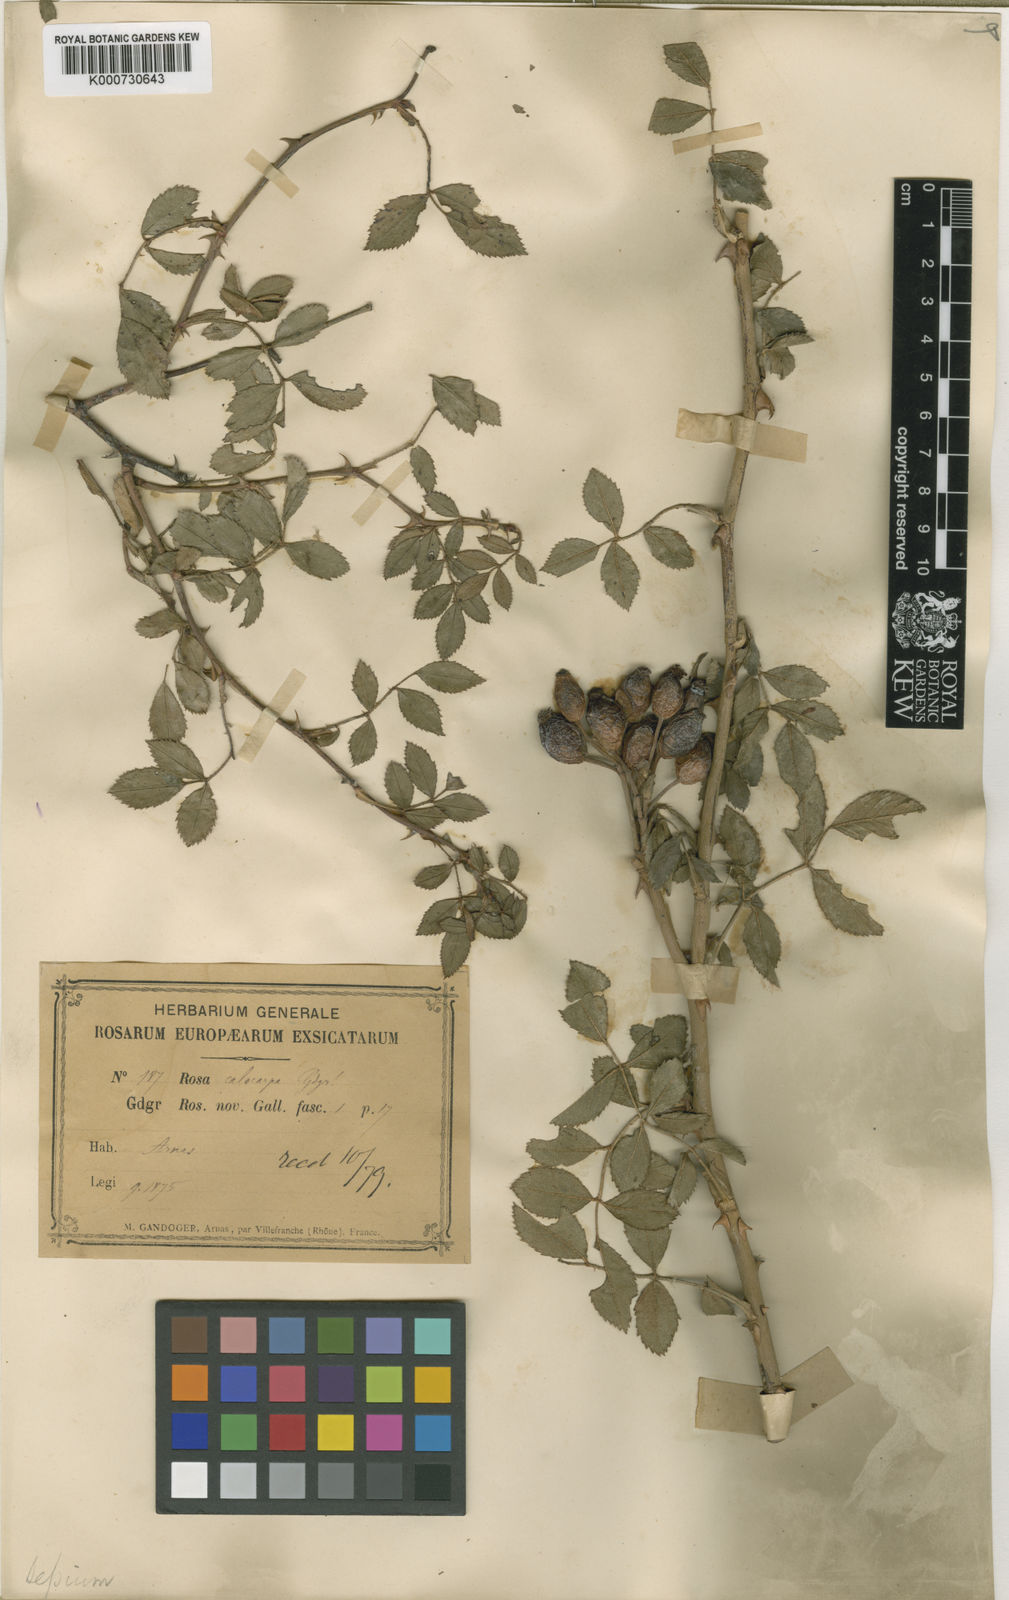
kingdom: Plantae
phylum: Tracheophyta
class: Magnoliopsida
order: Rosales
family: Rosaceae
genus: Rosa
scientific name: Rosa agrestis
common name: Fieldbriar
